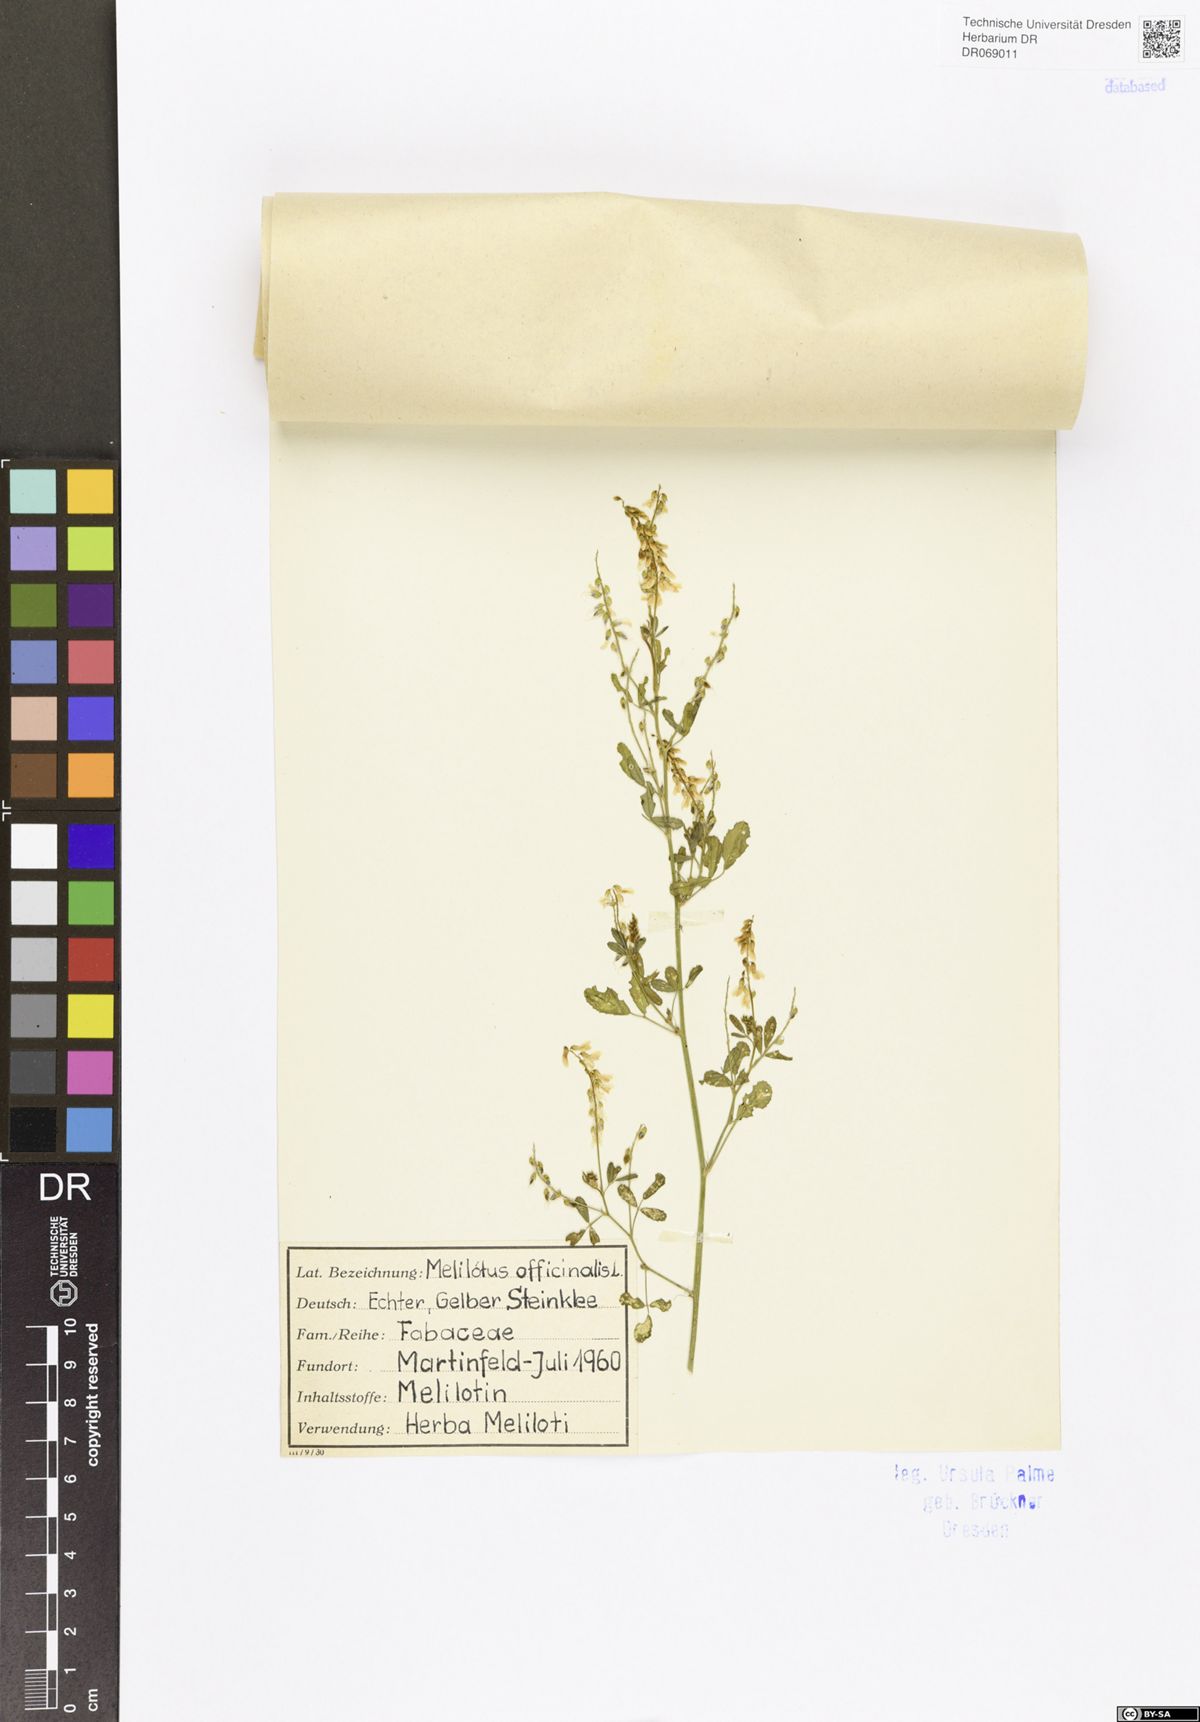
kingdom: Plantae
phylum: Tracheophyta
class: Magnoliopsida
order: Fabales
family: Fabaceae
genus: Melilotus
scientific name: Melilotus officinalis
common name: Sweetclover
